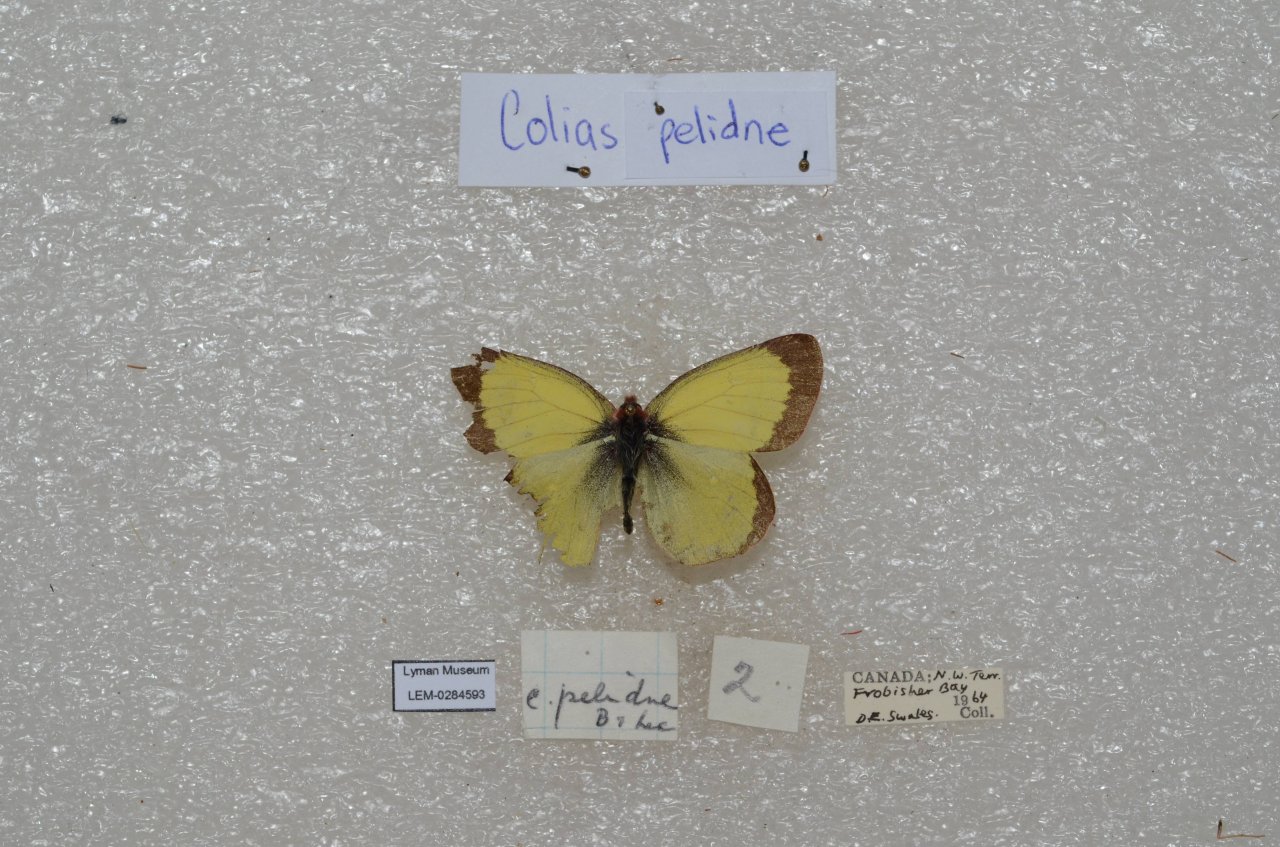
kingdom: Animalia
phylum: Arthropoda
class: Insecta
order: Lepidoptera
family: Pieridae
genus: Colias
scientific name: Colias palaeno
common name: Chippewa Sulphur
